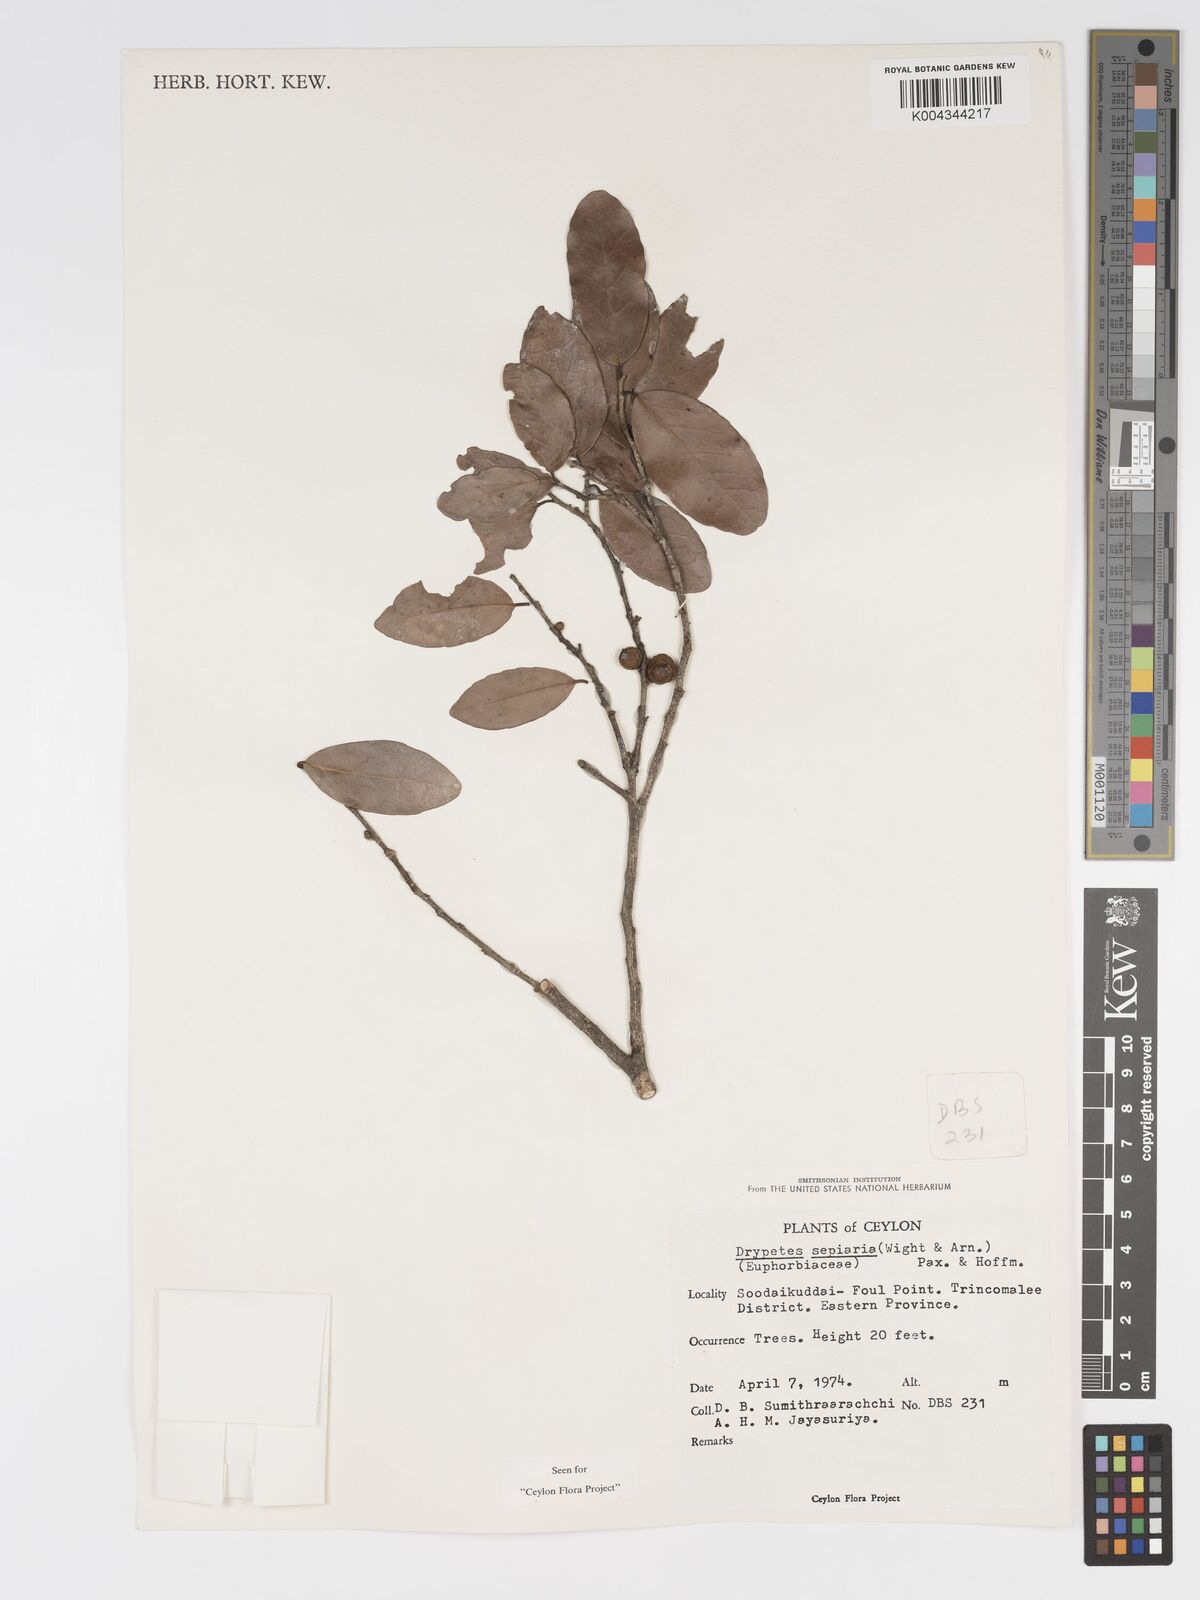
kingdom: Plantae
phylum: Tracheophyta
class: Magnoliopsida
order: Malpighiales
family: Putranjivaceae
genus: Drypetes
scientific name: Drypetes sepiaria
